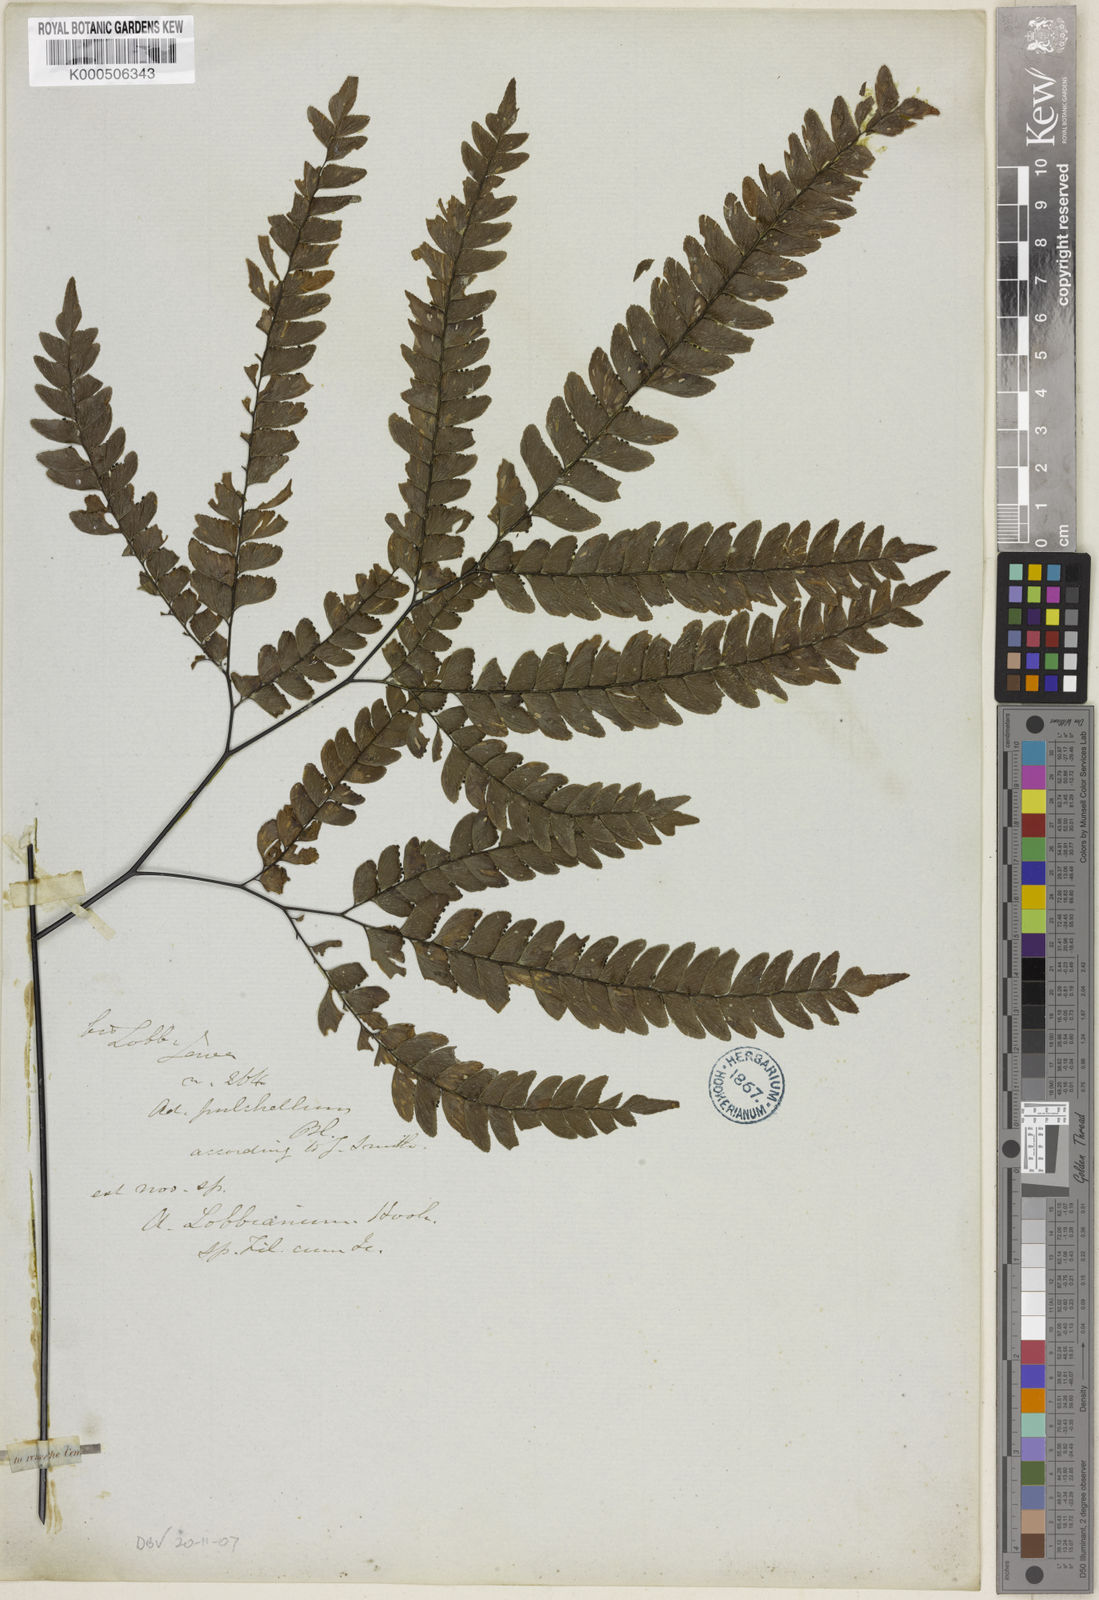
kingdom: Plantae
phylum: Tracheophyta
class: Polypodiopsida
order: Polypodiales
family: Pteridaceae
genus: Adiantum
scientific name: Adiantum pulchellum
